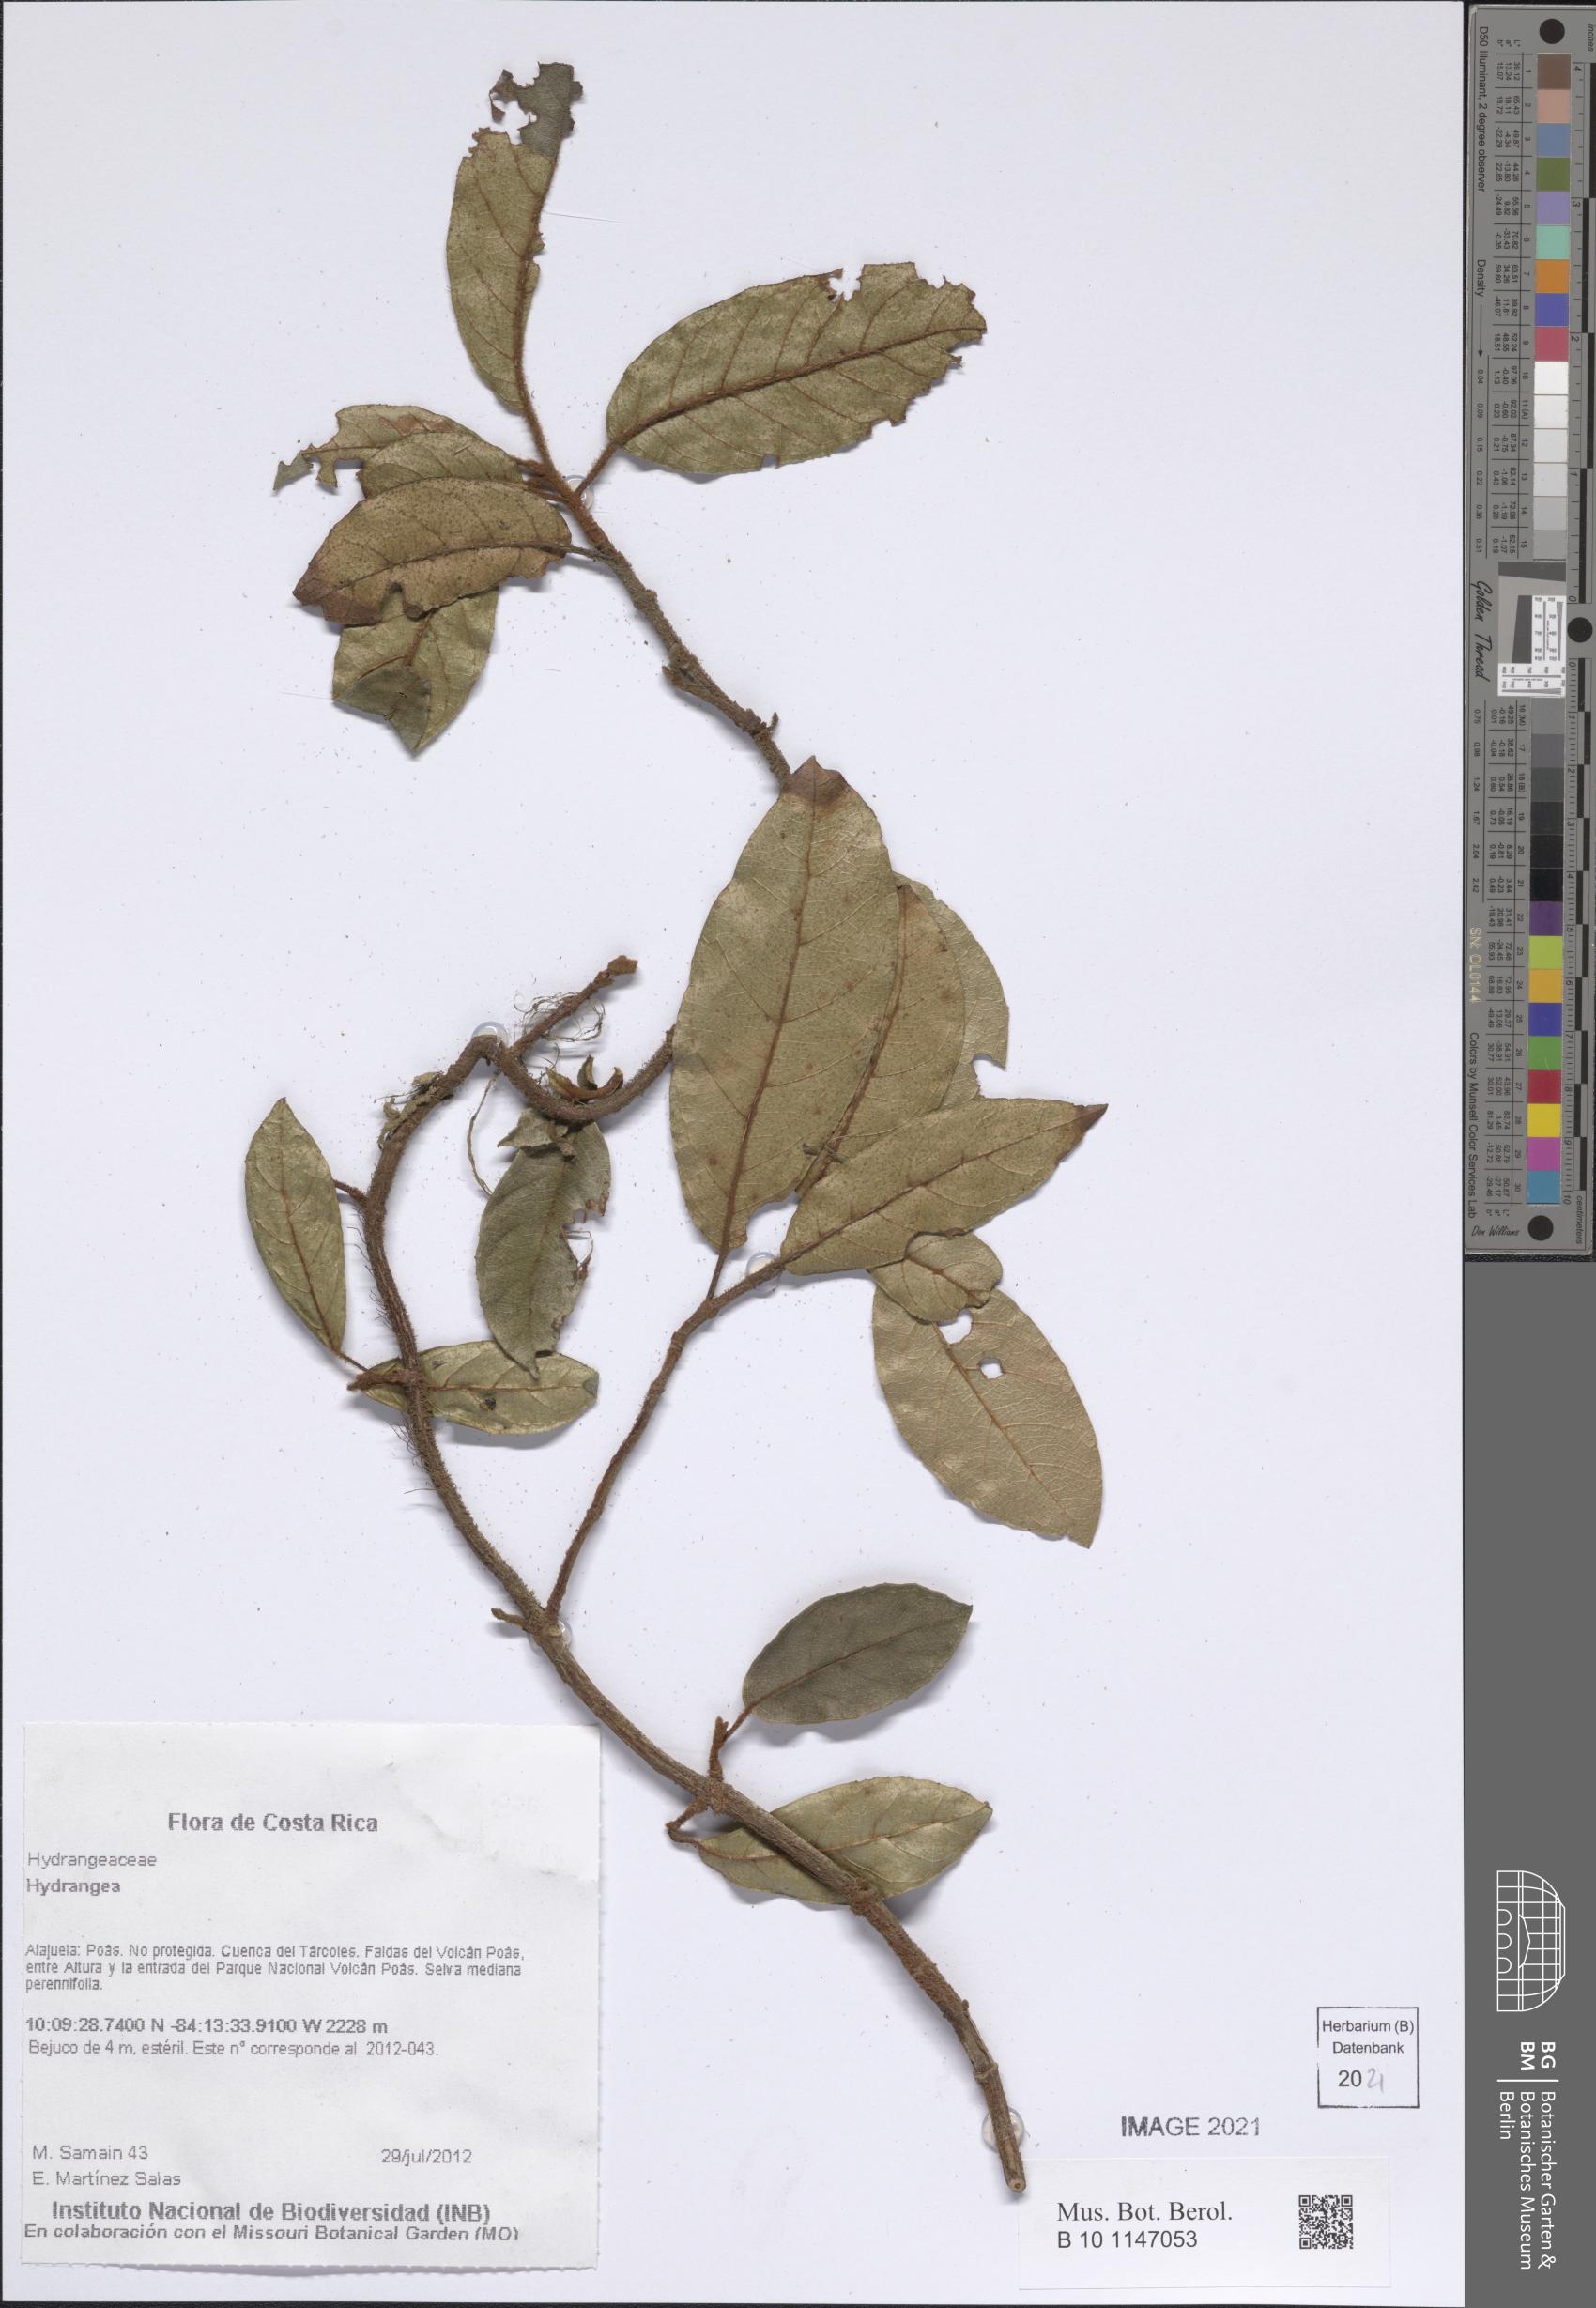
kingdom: Plantae
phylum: Tracheophyta
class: Magnoliopsida
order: Cornales
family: Hydrangeaceae
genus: Hydrangea
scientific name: Hydrangea
